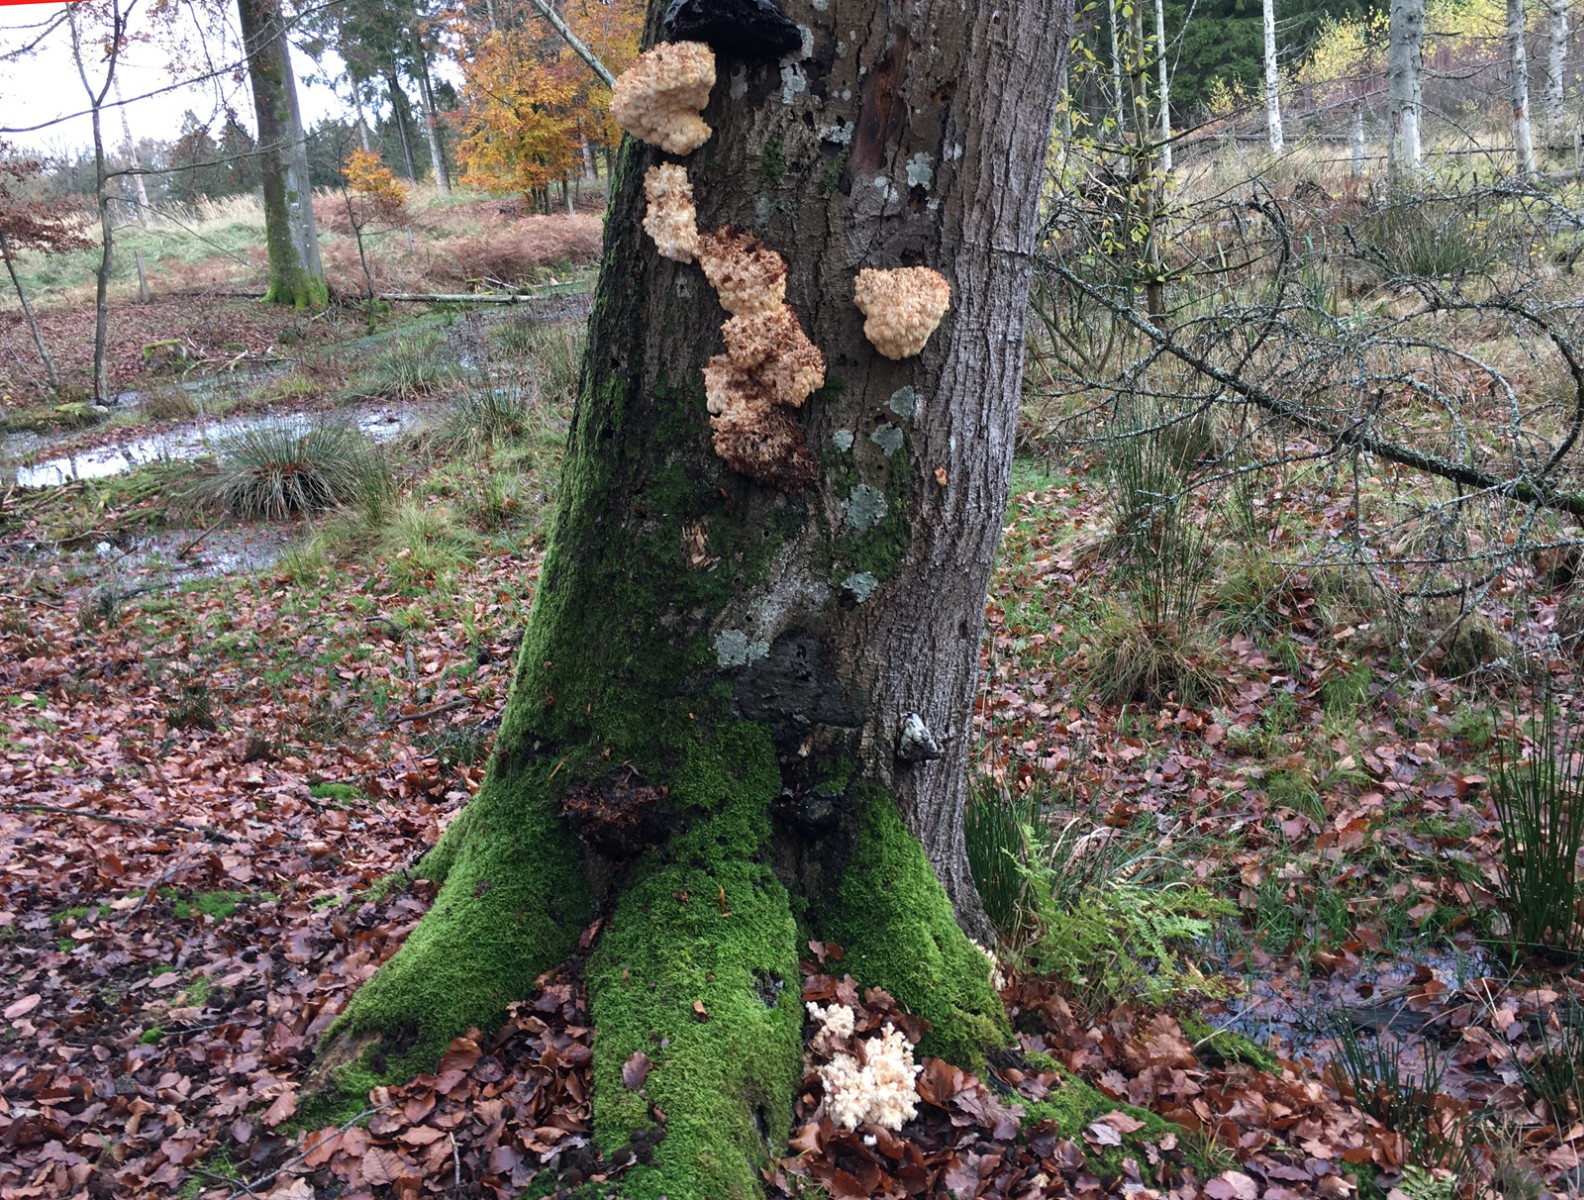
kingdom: Fungi
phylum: Basidiomycota
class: Agaricomycetes
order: Russulales
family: Hericiaceae
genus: Hericium
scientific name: Hericium coralloides
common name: koralpigsvamp
